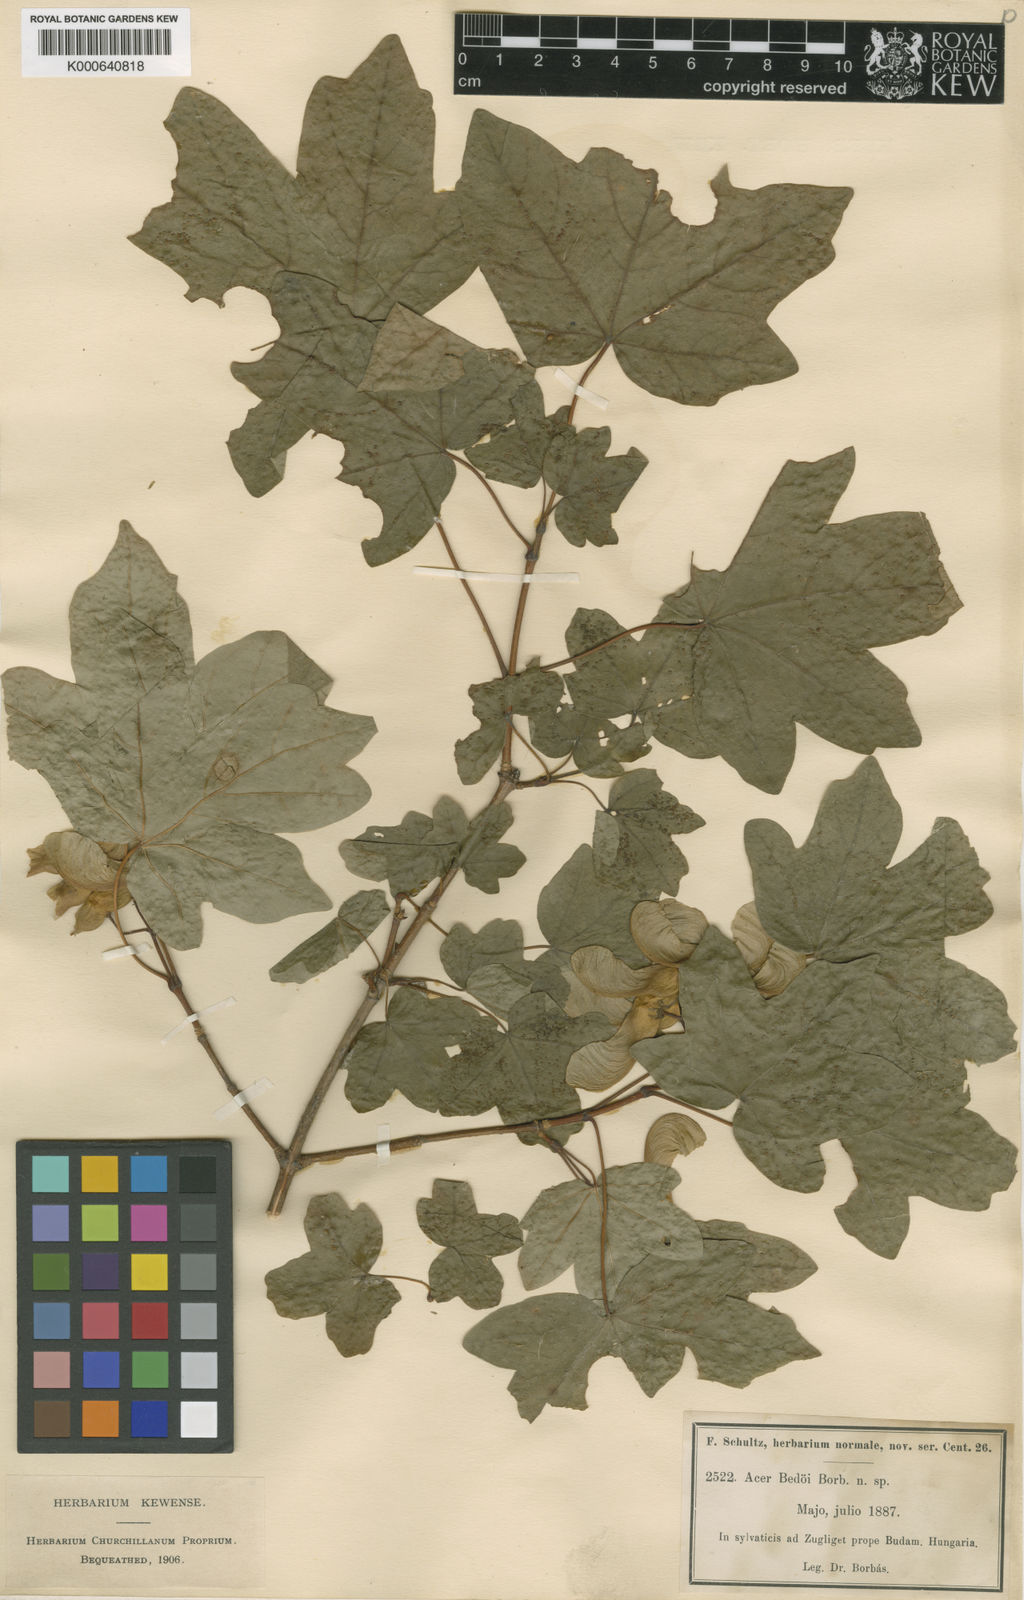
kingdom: Plantae
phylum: Tracheophyta
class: Magnoliopsida
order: Sapindales
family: Sapindaceae
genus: Acer
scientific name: Acer
